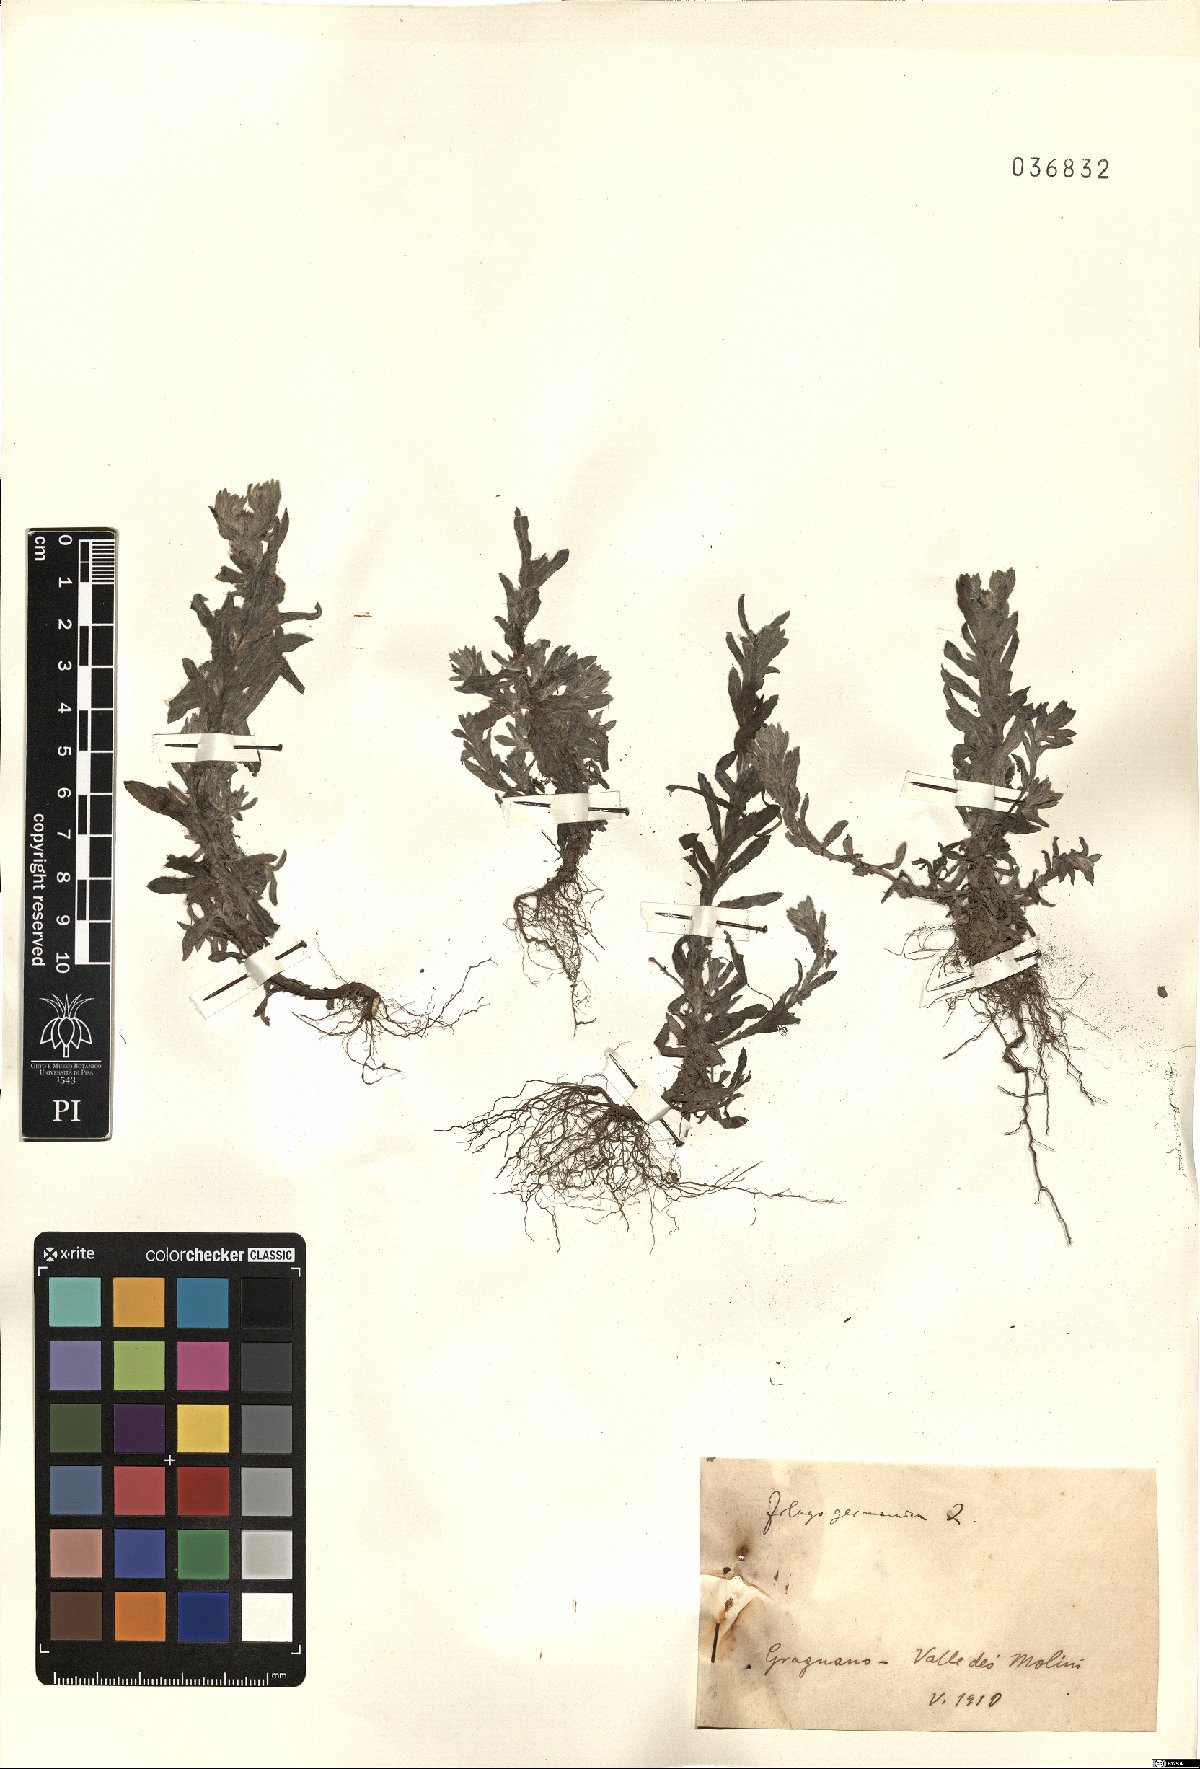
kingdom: Plantae
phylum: Tracheophyta
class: Magnoliopsida
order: Asterales
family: Asteraceae
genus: Filago
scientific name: Filago germanica
